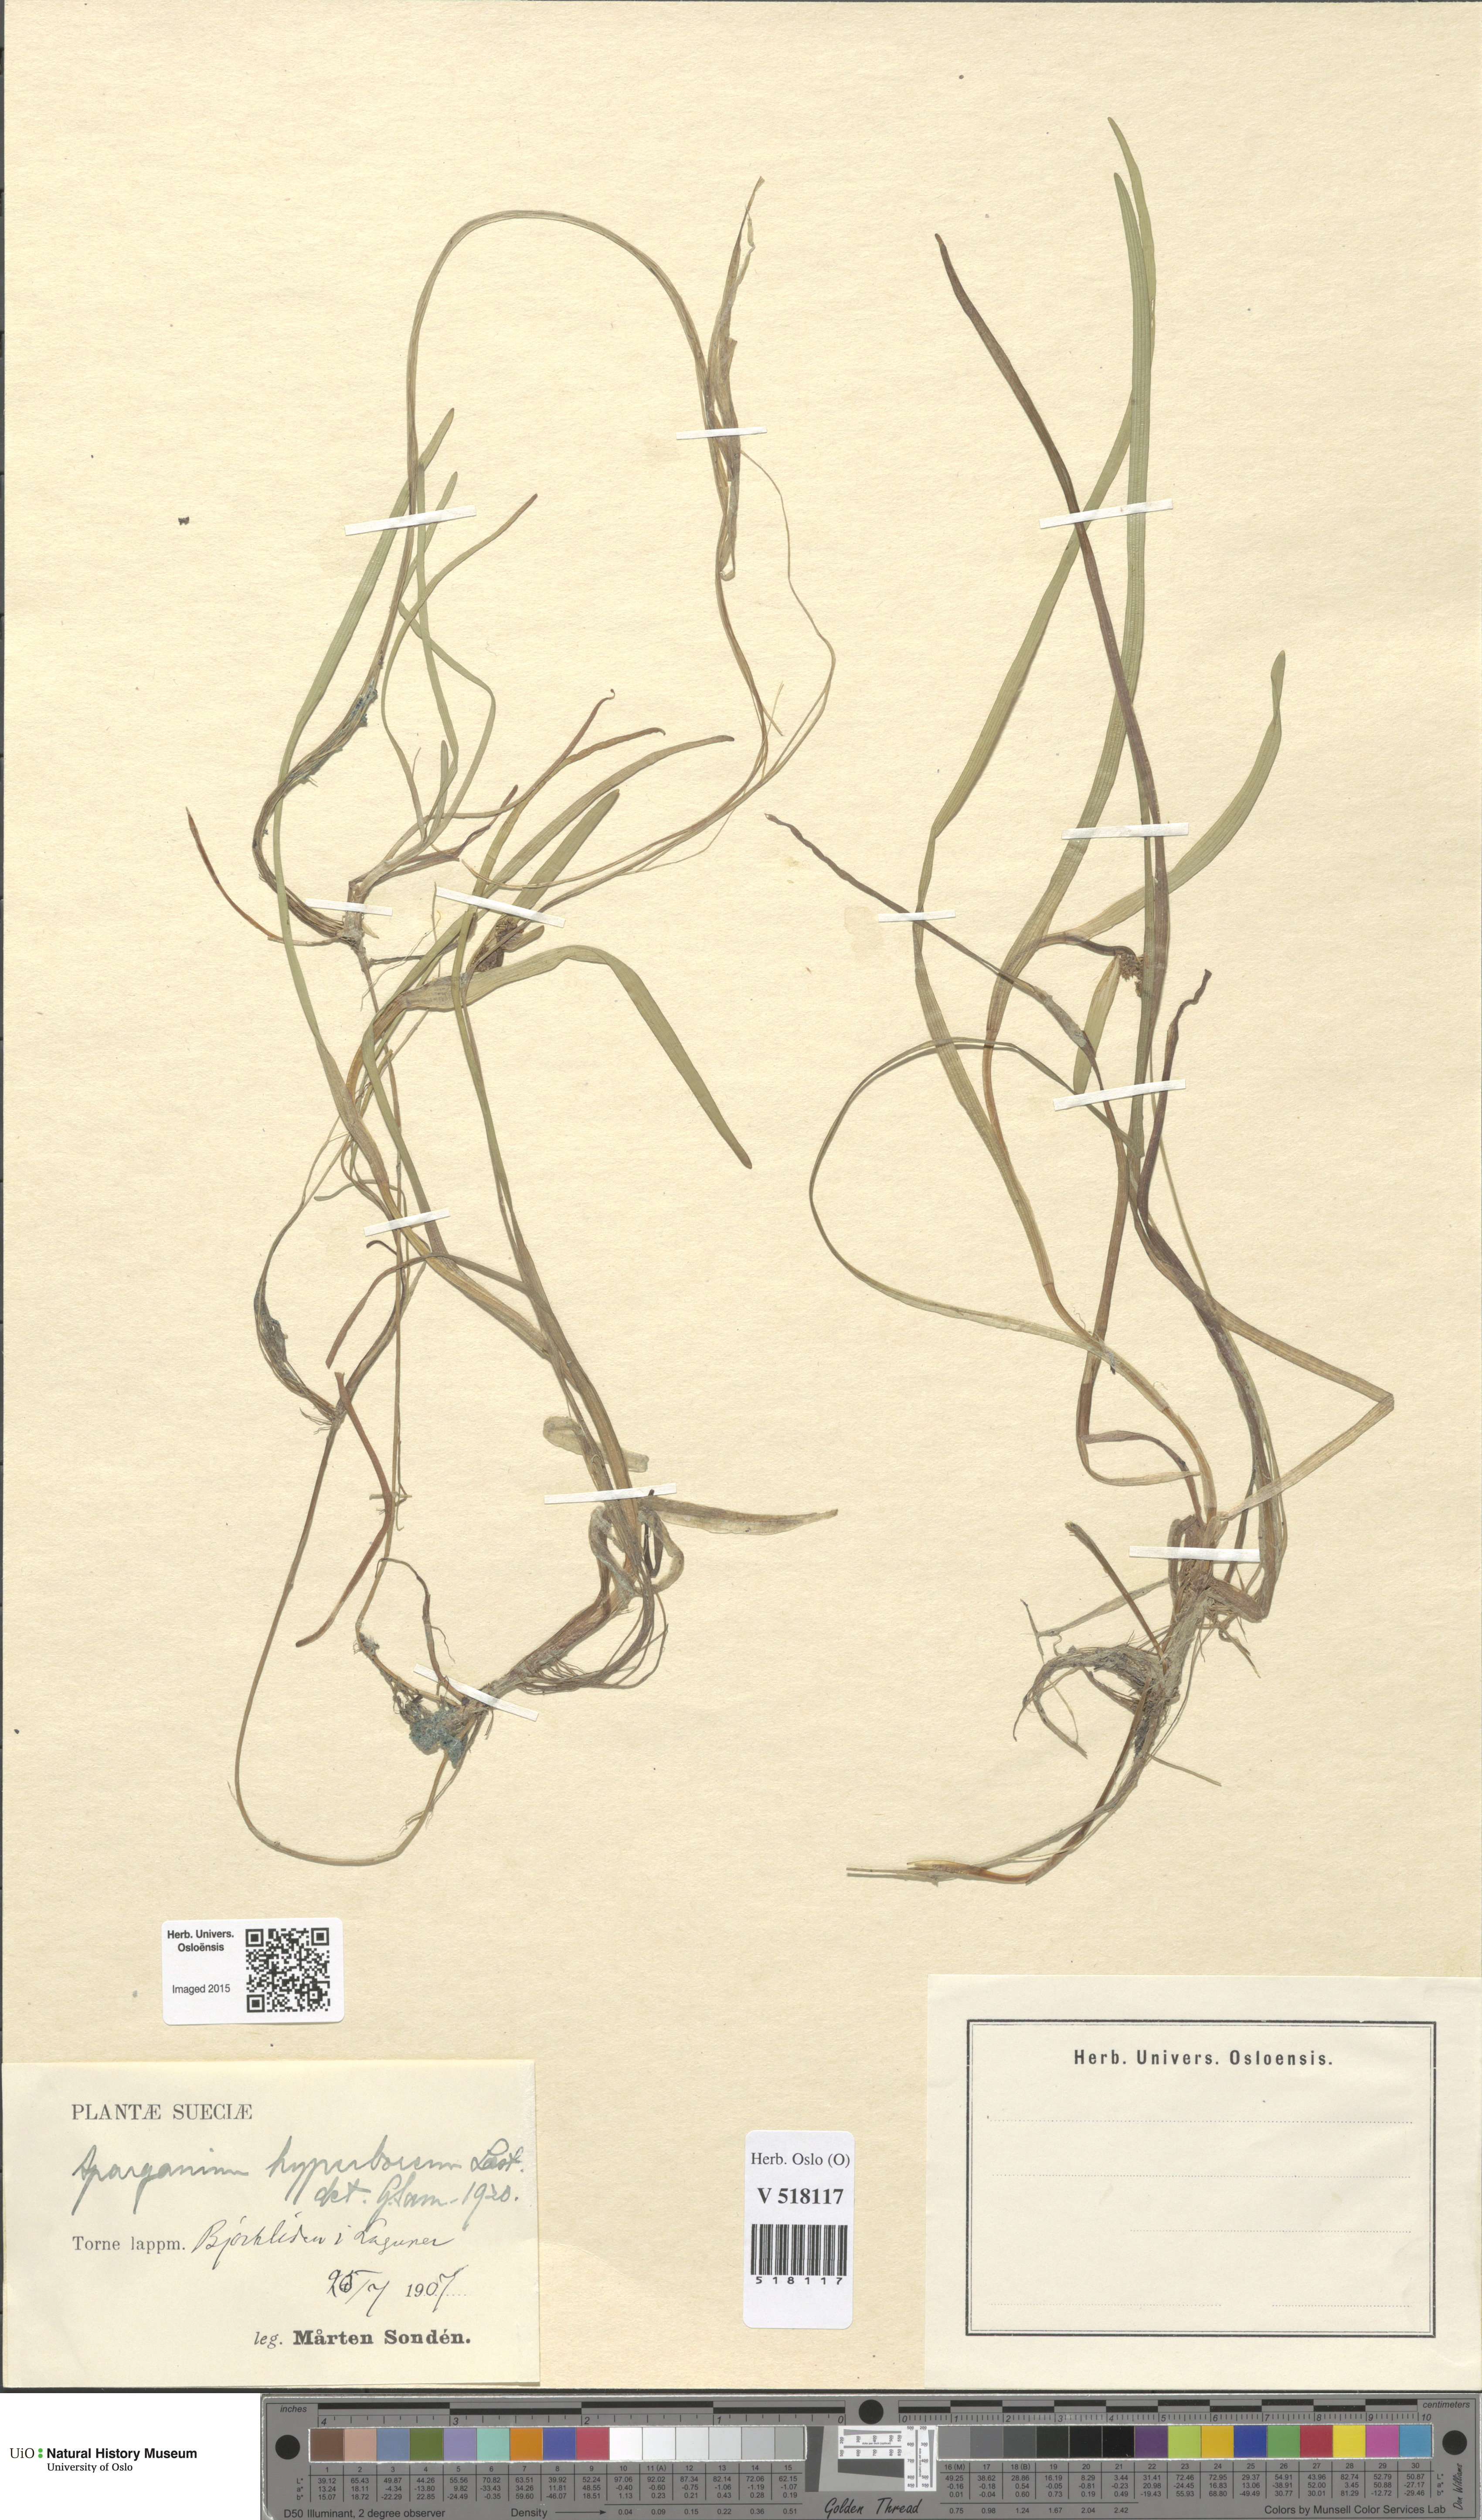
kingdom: Plantae
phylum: Tracheophyta
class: Liliopsida
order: Poales
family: Typhaceae
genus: Sparganium
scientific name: Sparganium hyperboreum
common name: Arctic burreed
